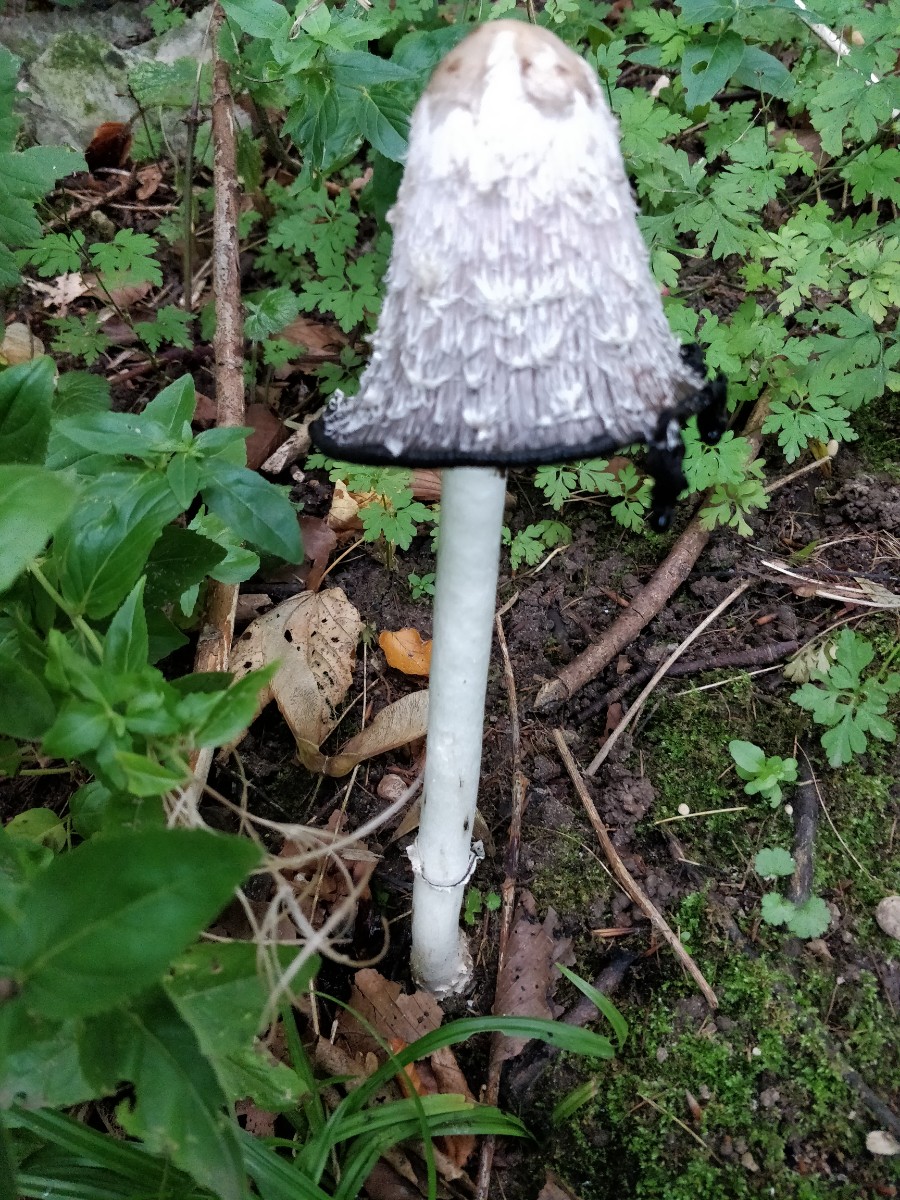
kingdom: Fungi
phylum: Basidiomycota
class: Agaricomycetes
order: Agaricales
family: Agaricaceae
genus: Coprinus
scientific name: Coprinus comatus
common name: stor parykhat
